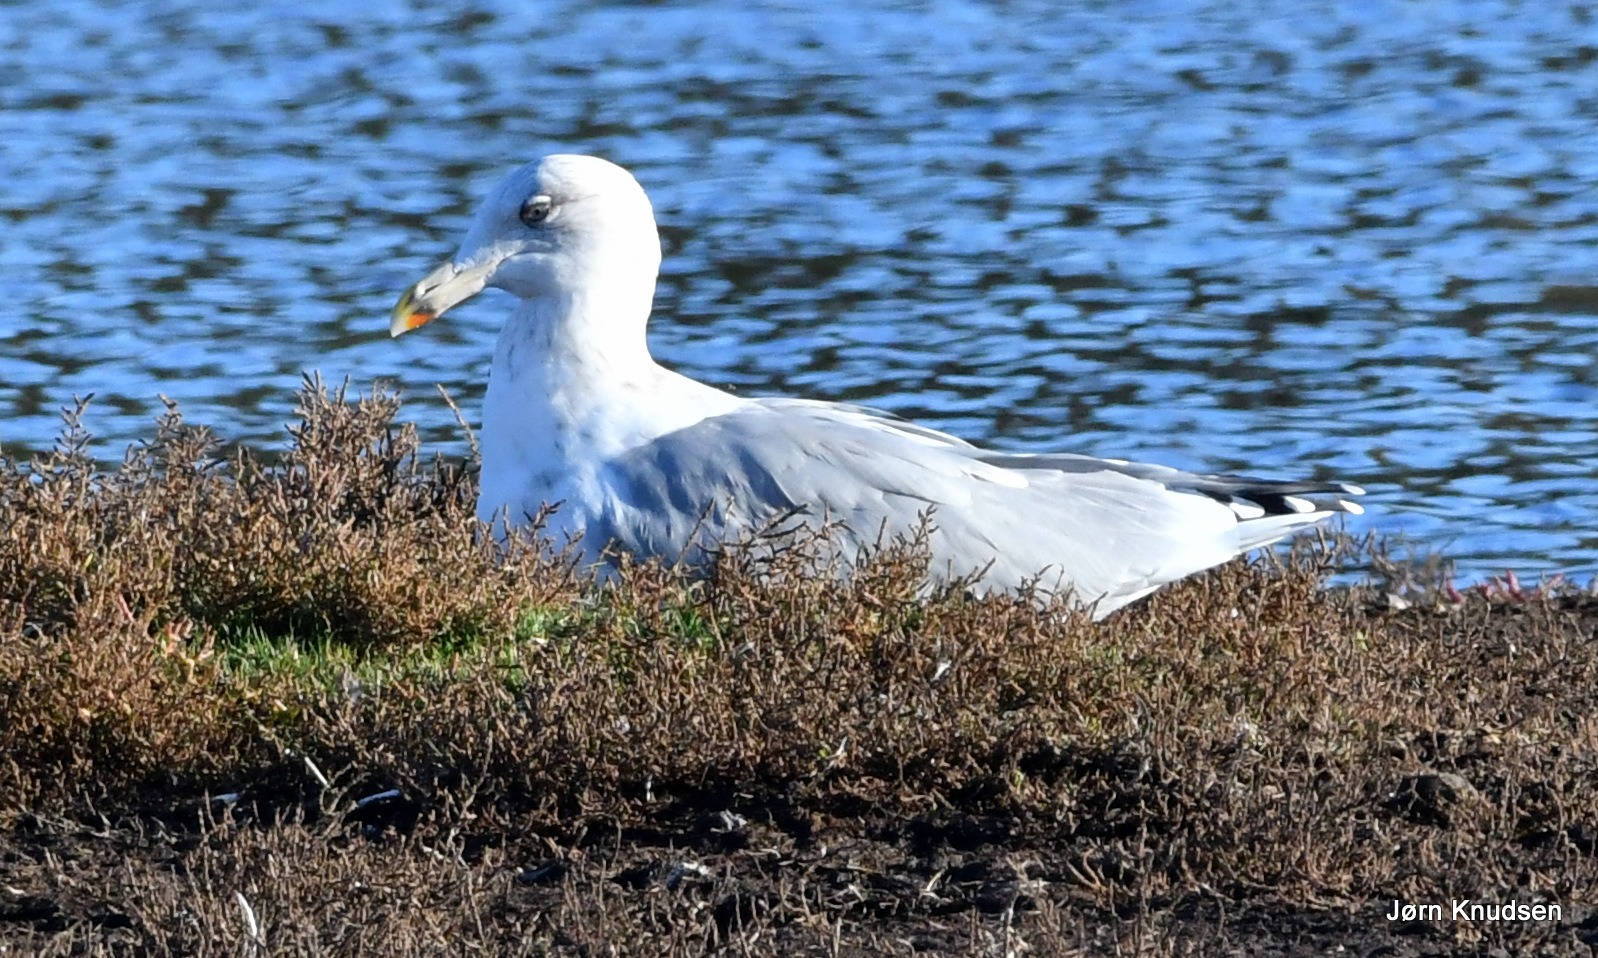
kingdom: Animalia
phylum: Chordata
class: Aves
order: Charadriiformes
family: Laridae
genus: Larus
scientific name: Larus argentatus
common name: Sølvmåge
